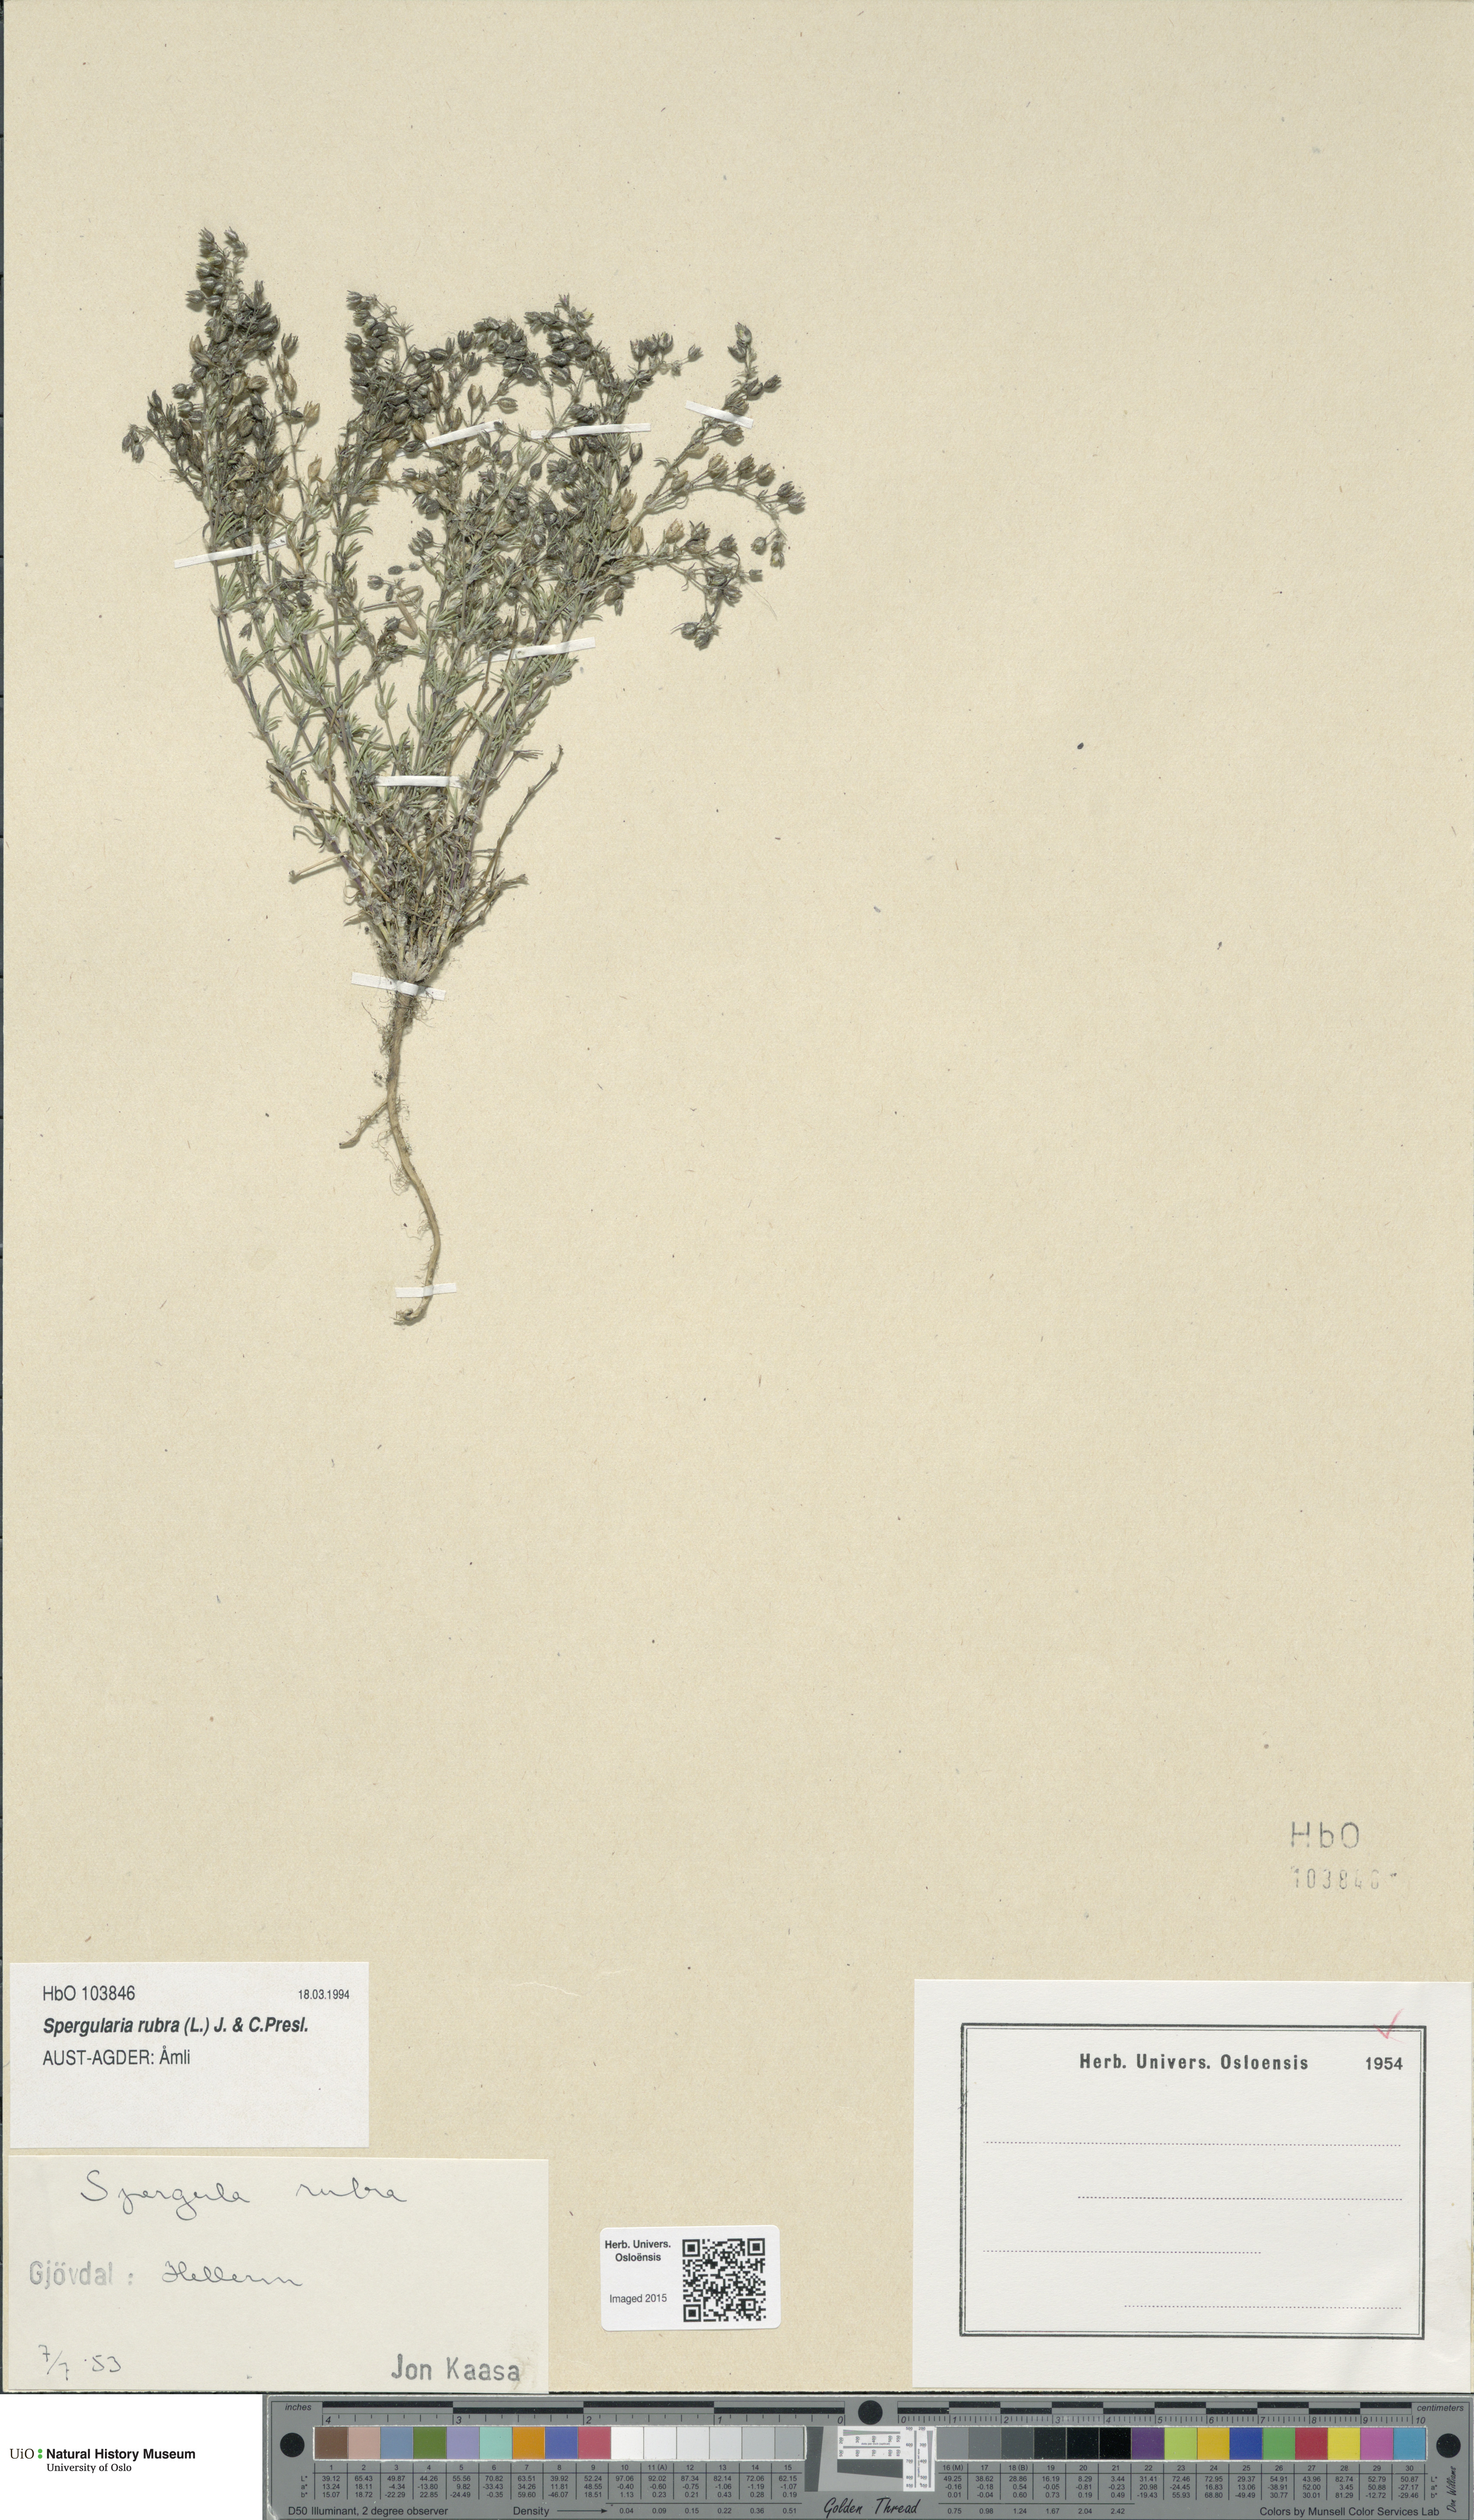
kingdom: Plantae
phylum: Tracheophyta
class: Magnoliopsida
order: Caryophyllales
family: Caryophyllaceae
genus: Spergularia
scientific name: Spergularia rubra
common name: Red sand-spurrey
